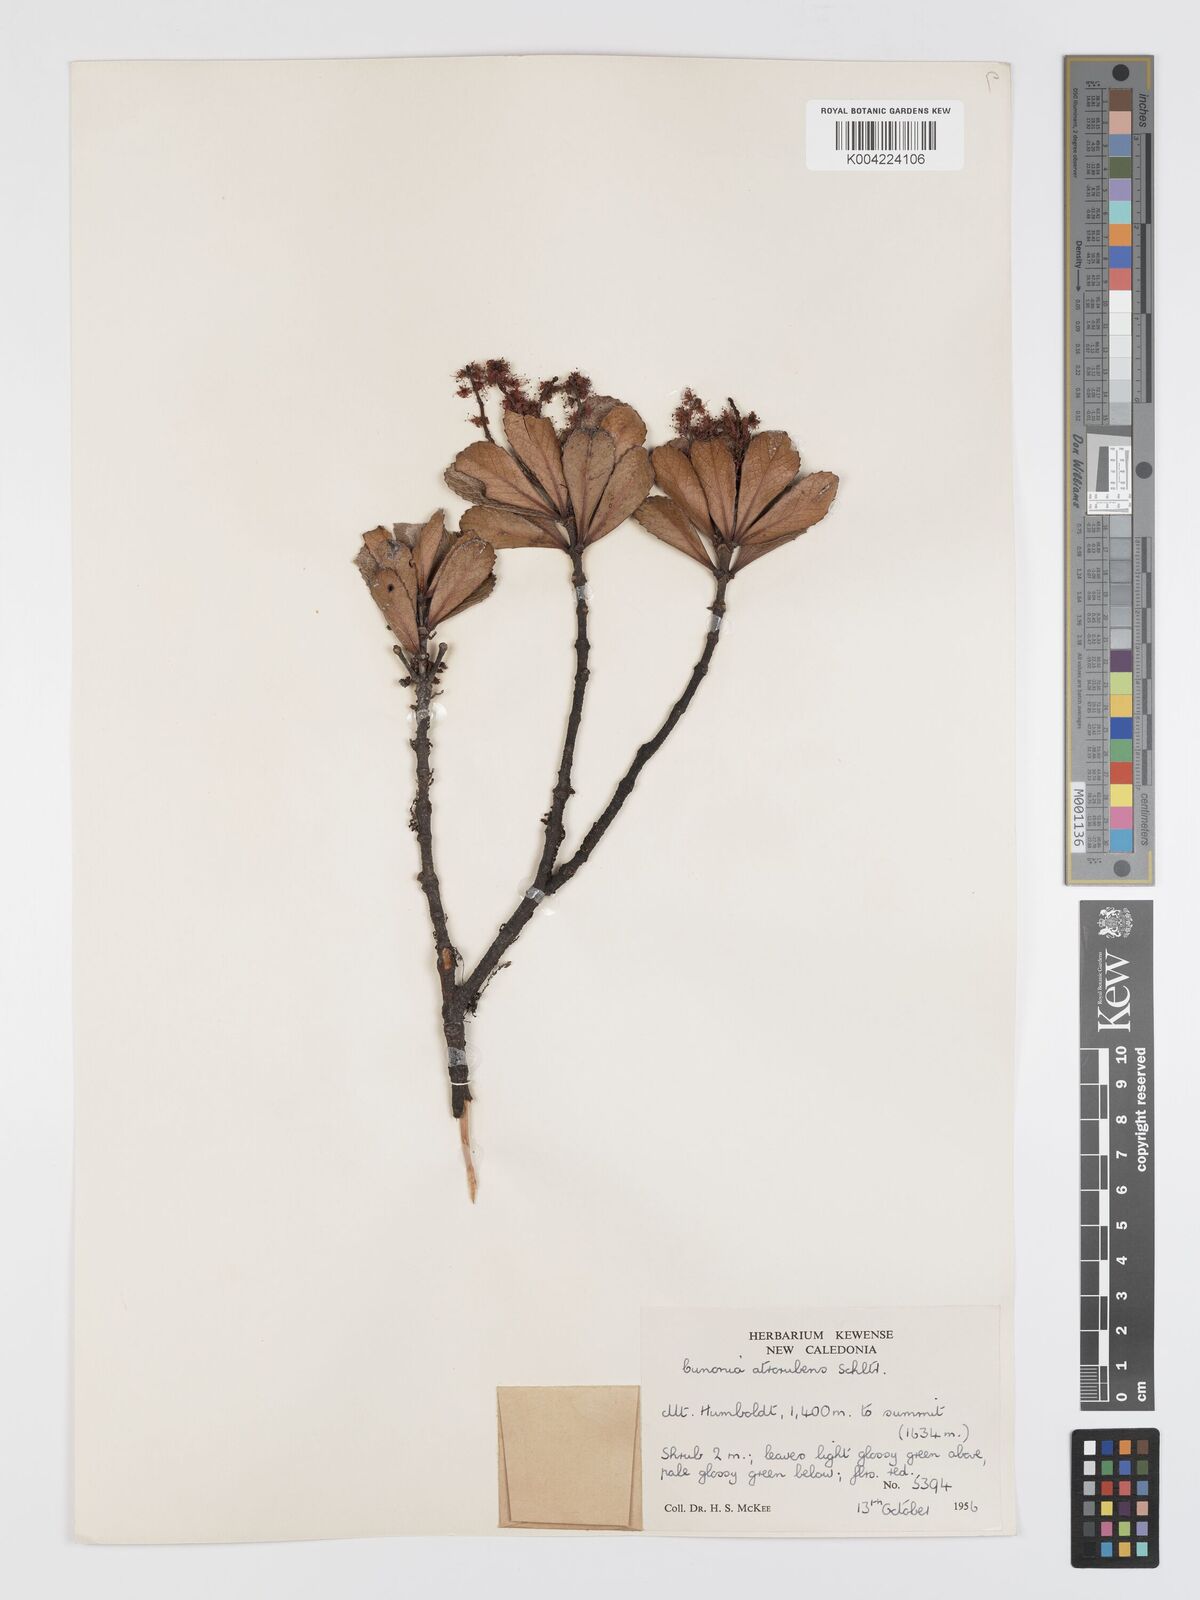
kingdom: Plantae
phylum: Tracheophyta
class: Magnoliopsida
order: Oxalidales
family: Cunoniaceae
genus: Cunonia
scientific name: Cunonia atrorubens
